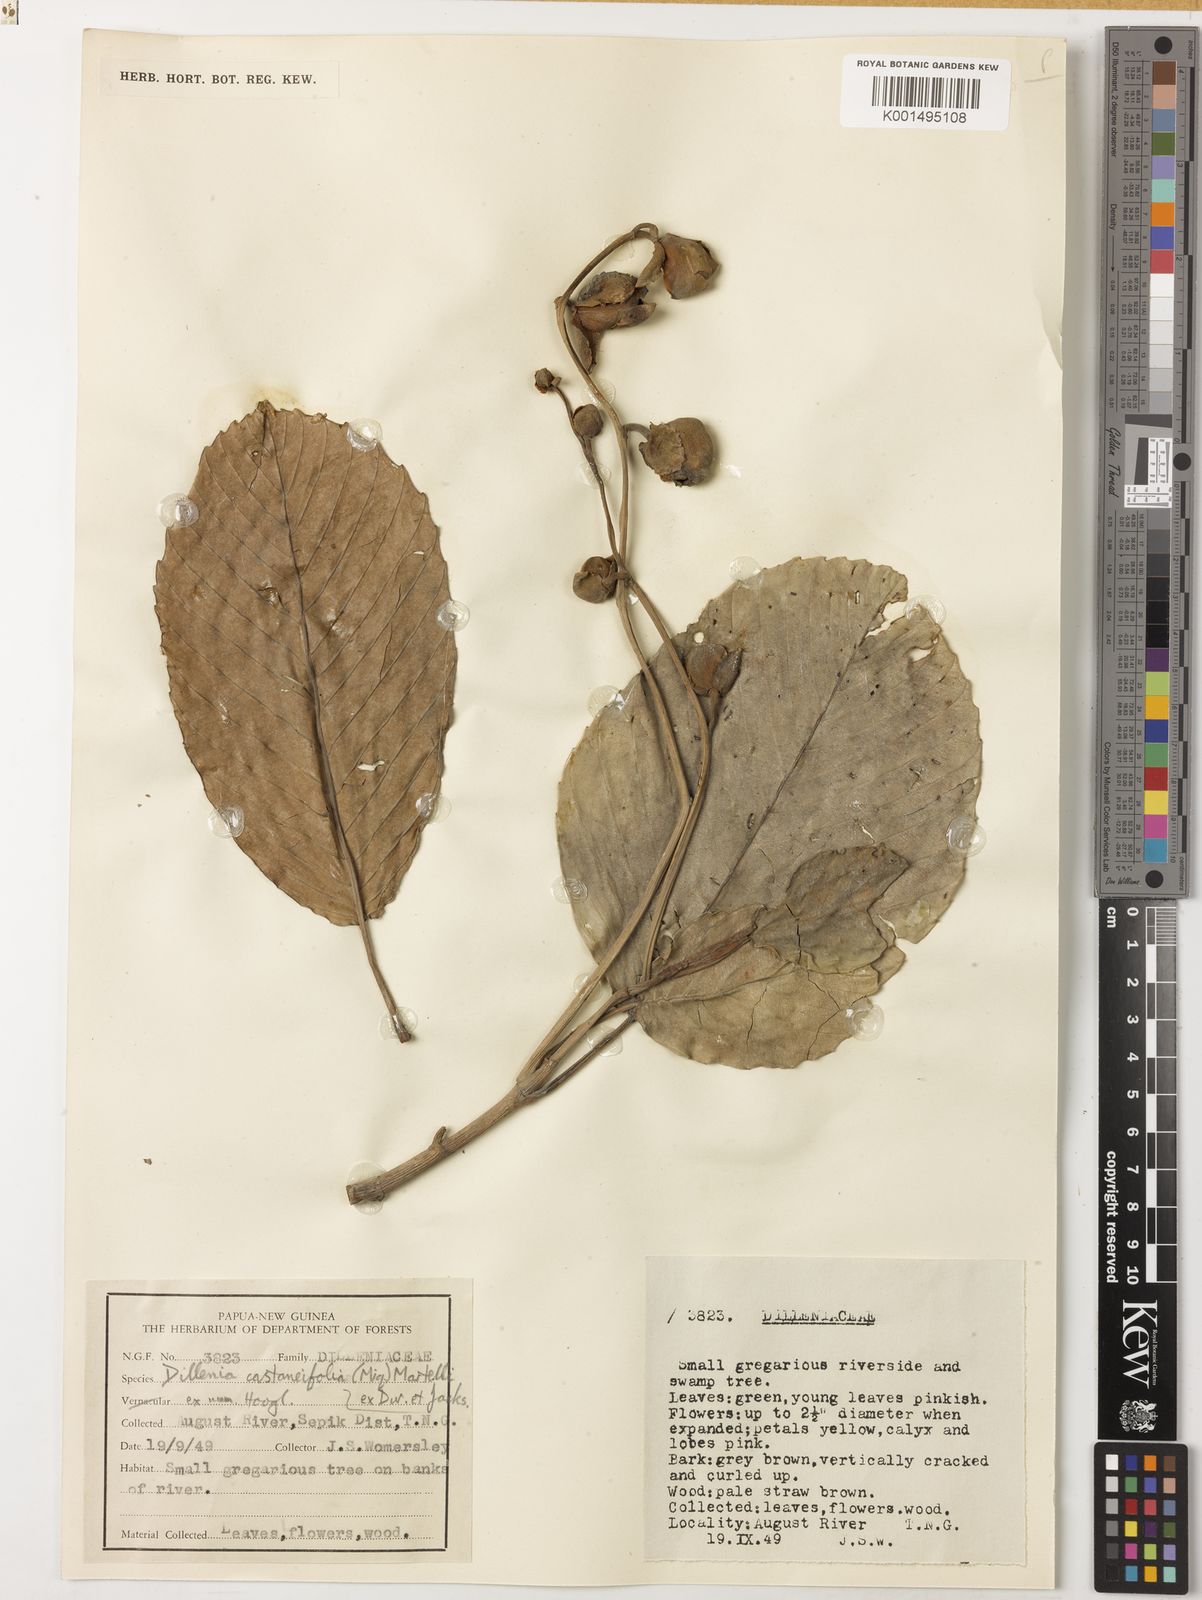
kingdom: Plantae
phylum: Tracheophyta
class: Magnoliopsida
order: Dilleniales
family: Dilleniaceae
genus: Dillenia
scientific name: Dillenia castaneifolia
